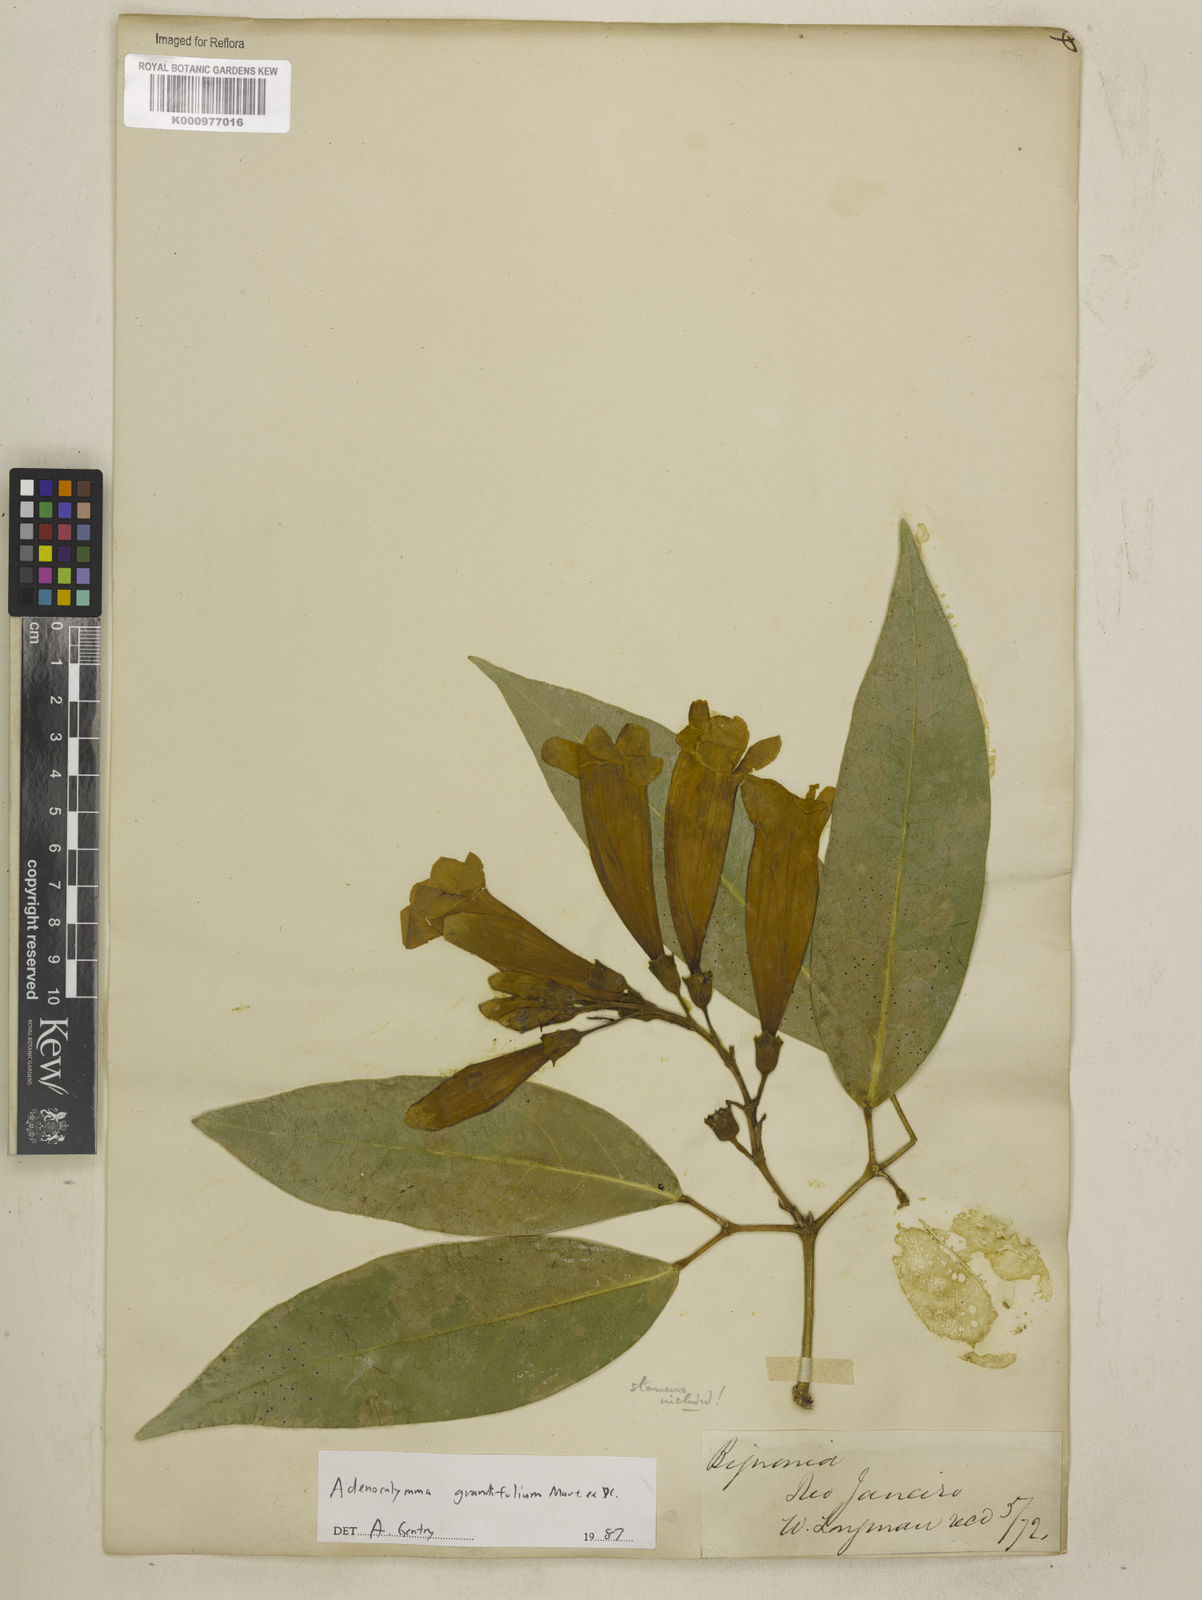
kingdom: Plantae
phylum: Tracheophyta
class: Magnoliopsida
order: Lamiales
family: Bignoniaceae
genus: Adenocalymma
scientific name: Adenocalymma ternatum
